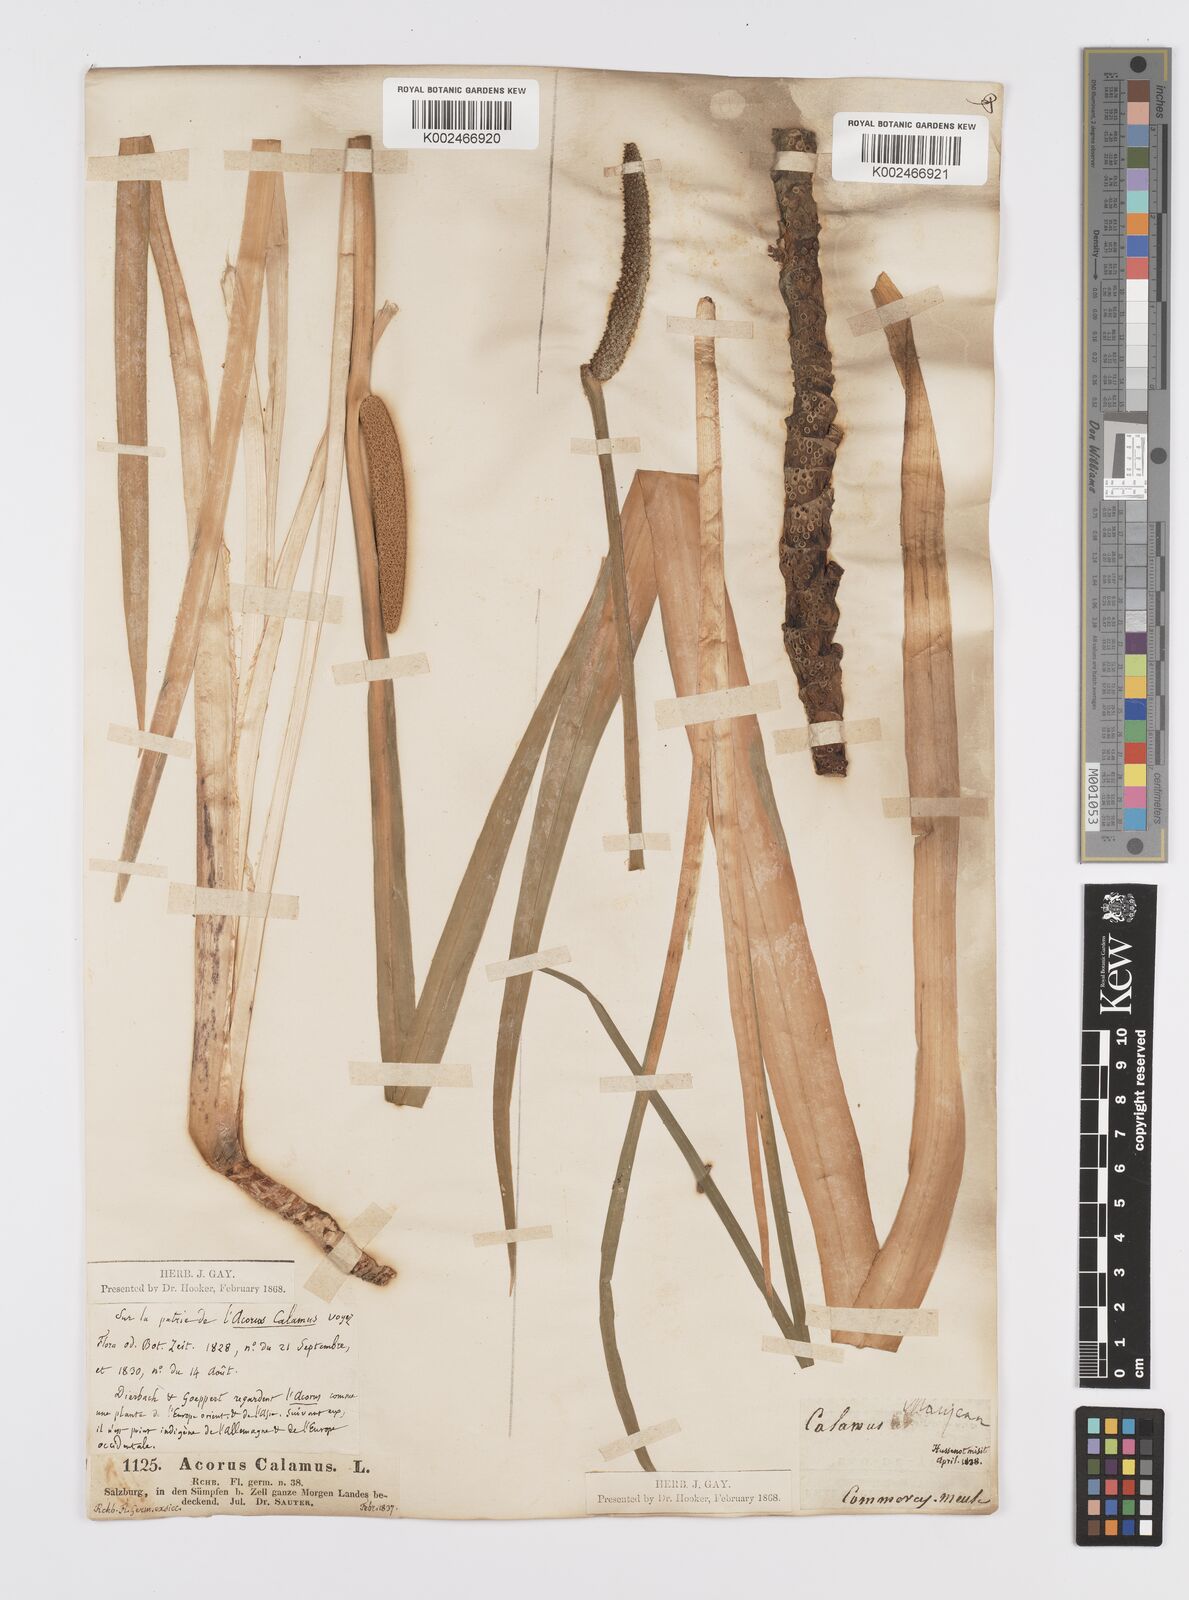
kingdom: Plantae
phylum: Tracheophyta
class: Liliopsida
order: Acorales
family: Acoraceae
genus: Acorus
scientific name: Acorus calamus
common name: Sweet-flag
